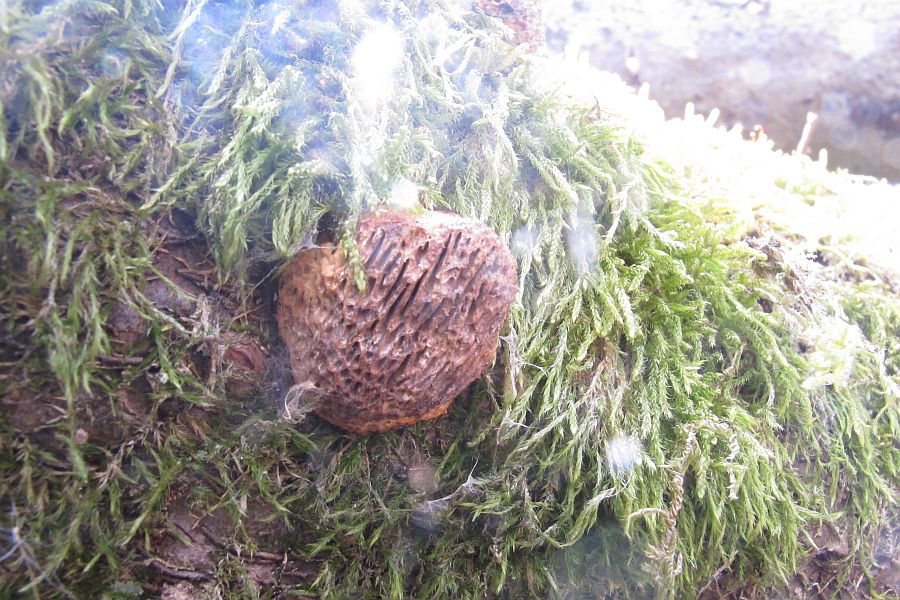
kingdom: Fungi
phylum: Basidiomycota
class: Agaricomycetes
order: Polyporales
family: Polyporaceae
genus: Daedaleopsis
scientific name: Daedaleopsis confragosa
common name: rødmende læderporesvamp
